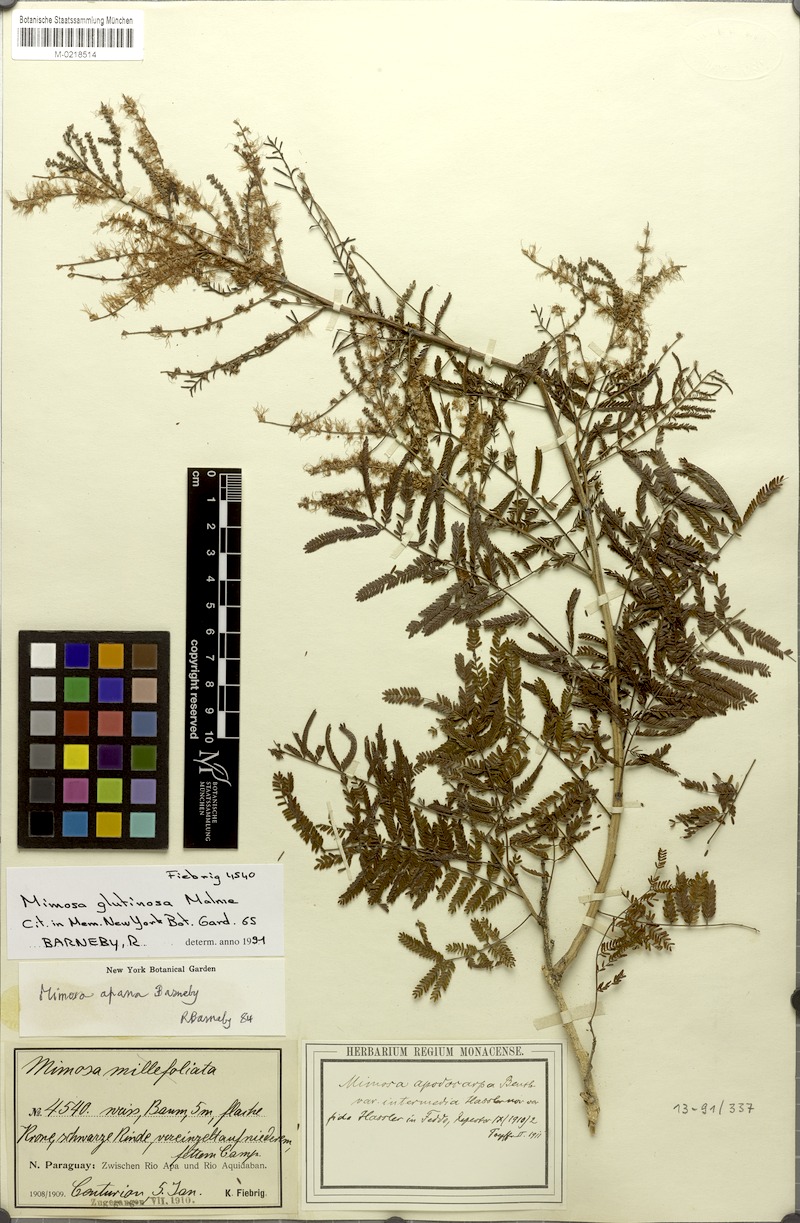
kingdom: Plantae
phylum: Tracheophyta
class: Magnoliopsida
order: Fabales
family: Fabaceae
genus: Mimosa
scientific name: Mimosa glutinosa
